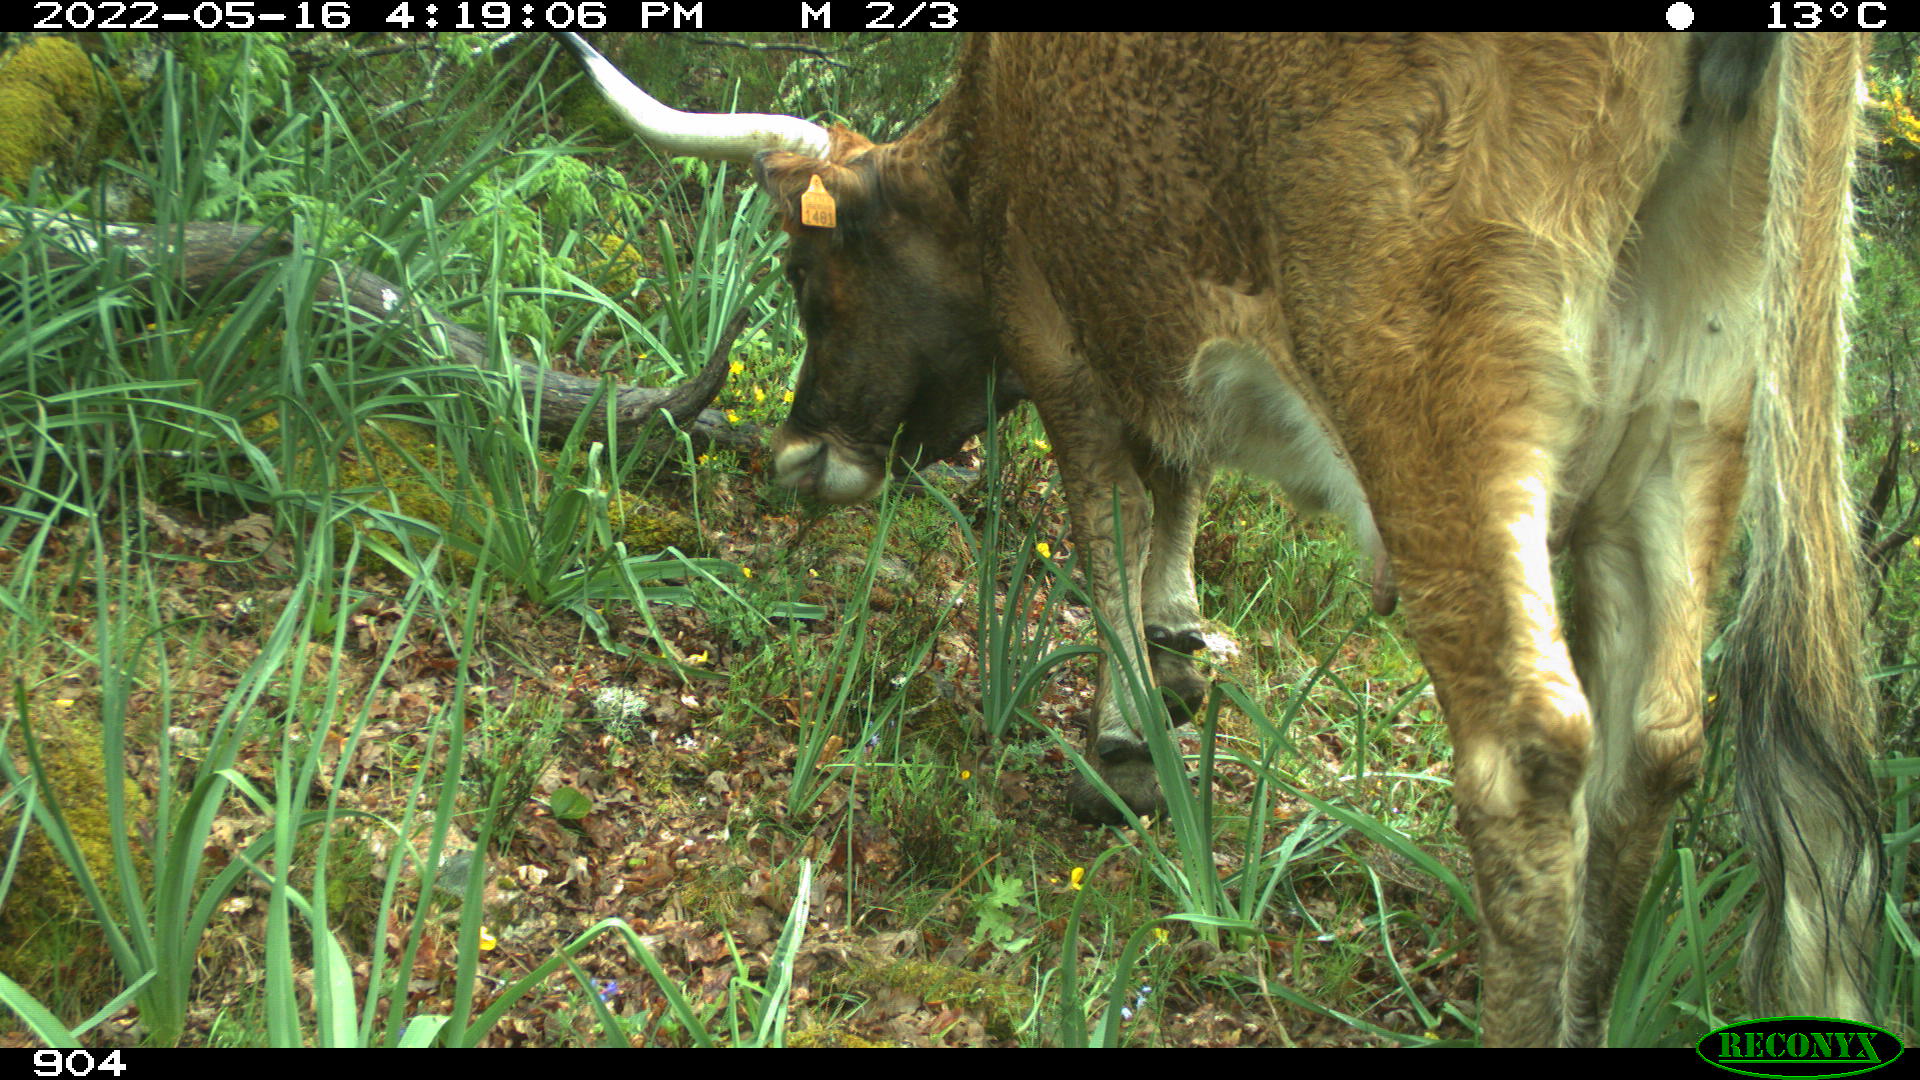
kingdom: Animalia
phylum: Chordata
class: Mammalia
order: Artiodactyla
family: Bovidae
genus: Bos
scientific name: Bos taurus
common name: Domesticated cattle
